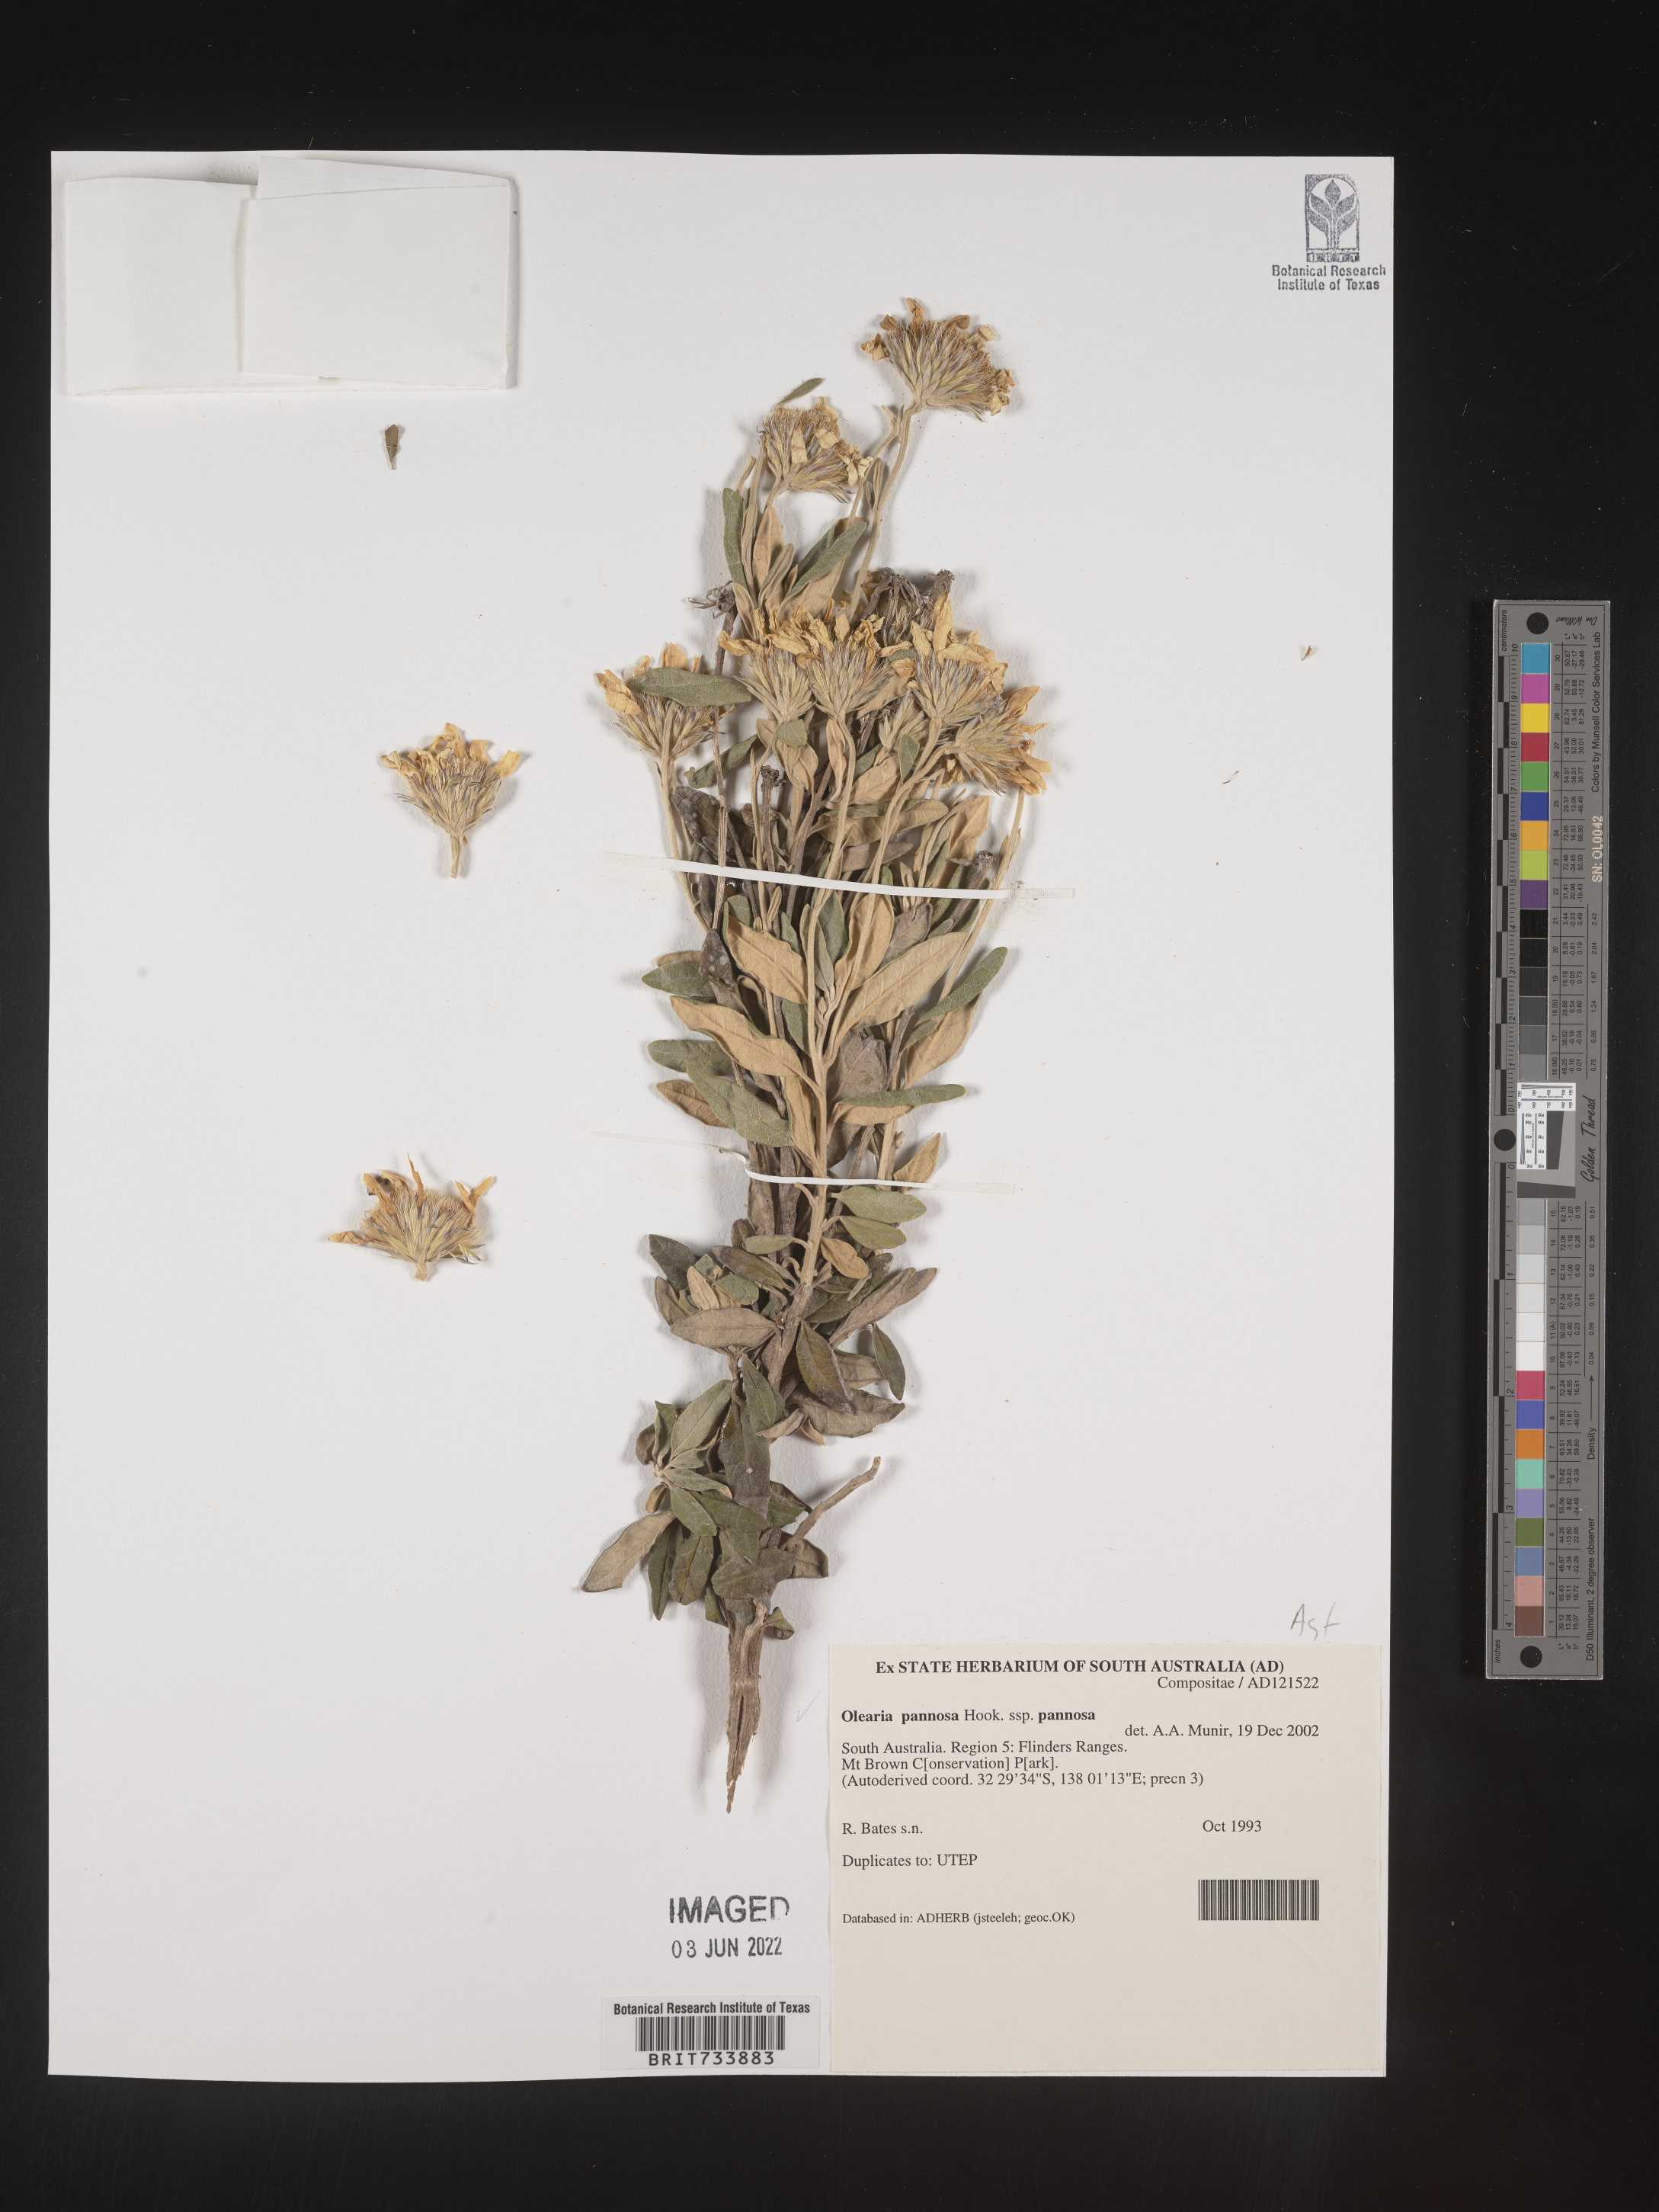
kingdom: Plantae
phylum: Tracheophyta
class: Magnoliopsida
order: Asterales
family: Asteraceae
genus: Olearia
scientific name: Olearia
